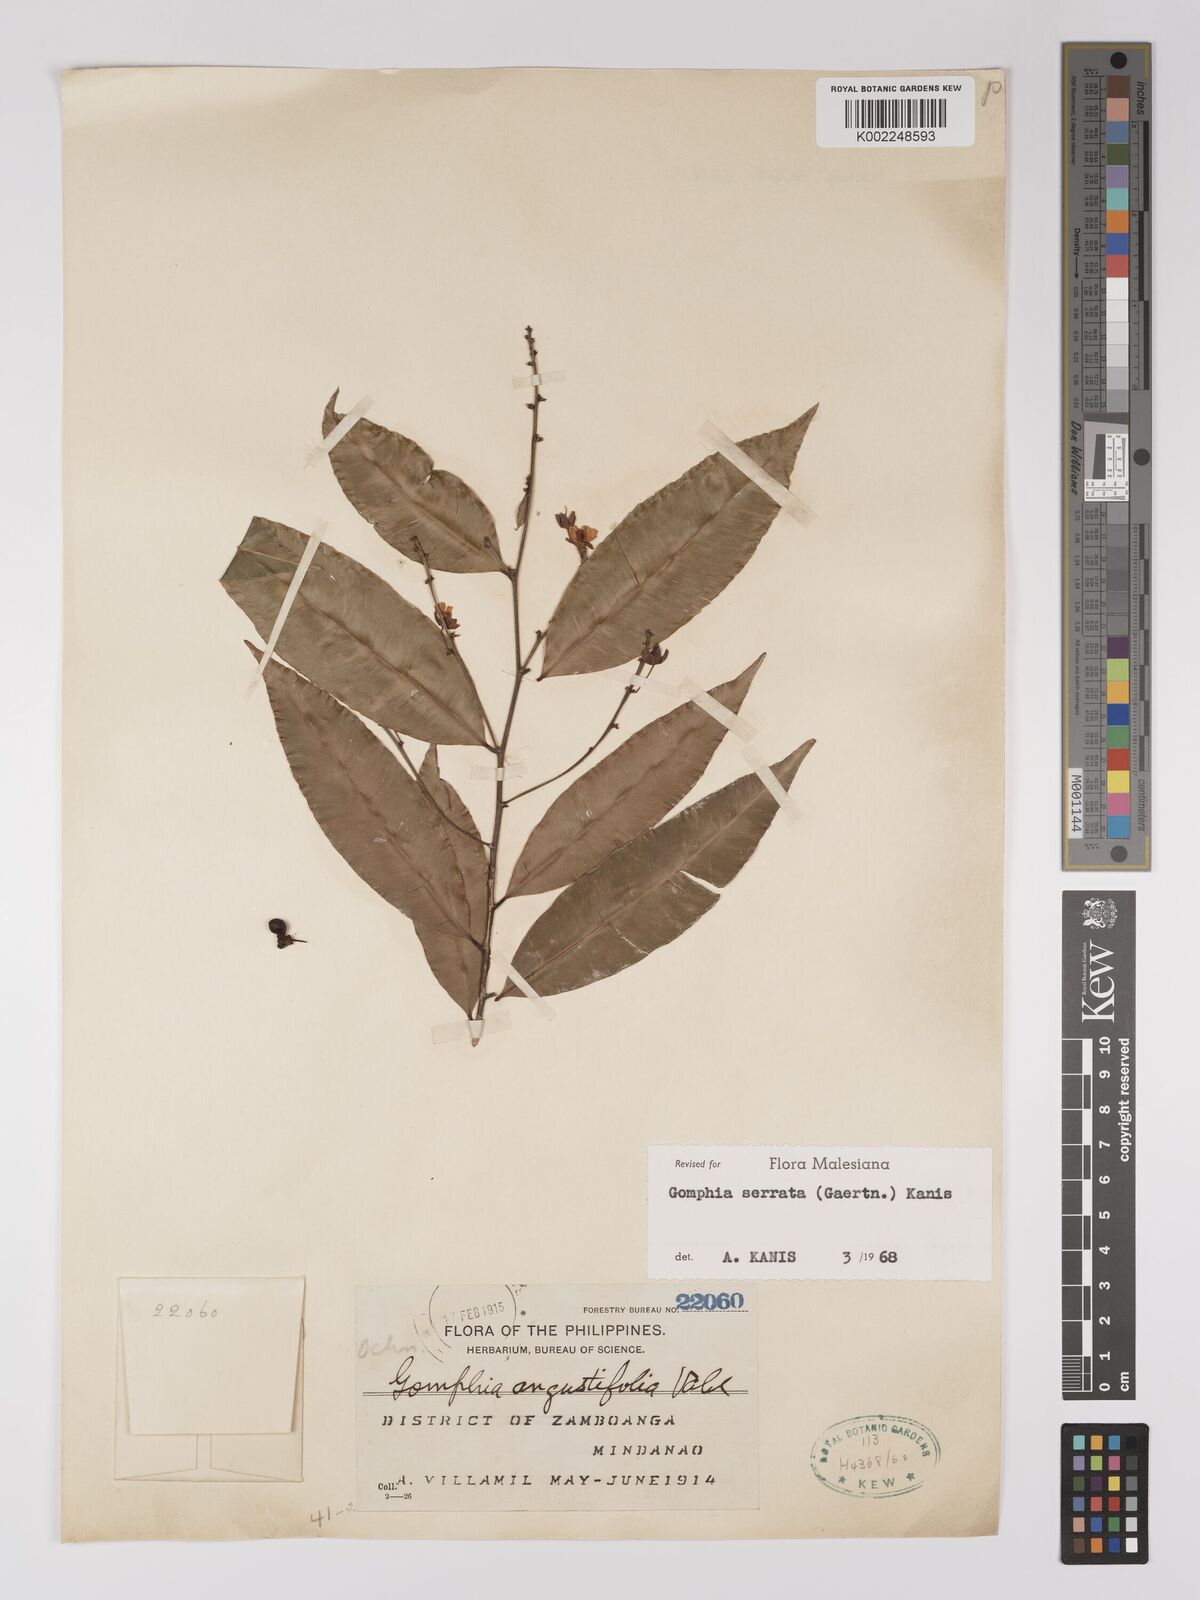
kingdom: Plantae
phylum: Tracheophyta
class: Magnoliopsida
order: Malpighiales
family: Ochnaceae
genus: Gomphia
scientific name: Gomphia serrata
